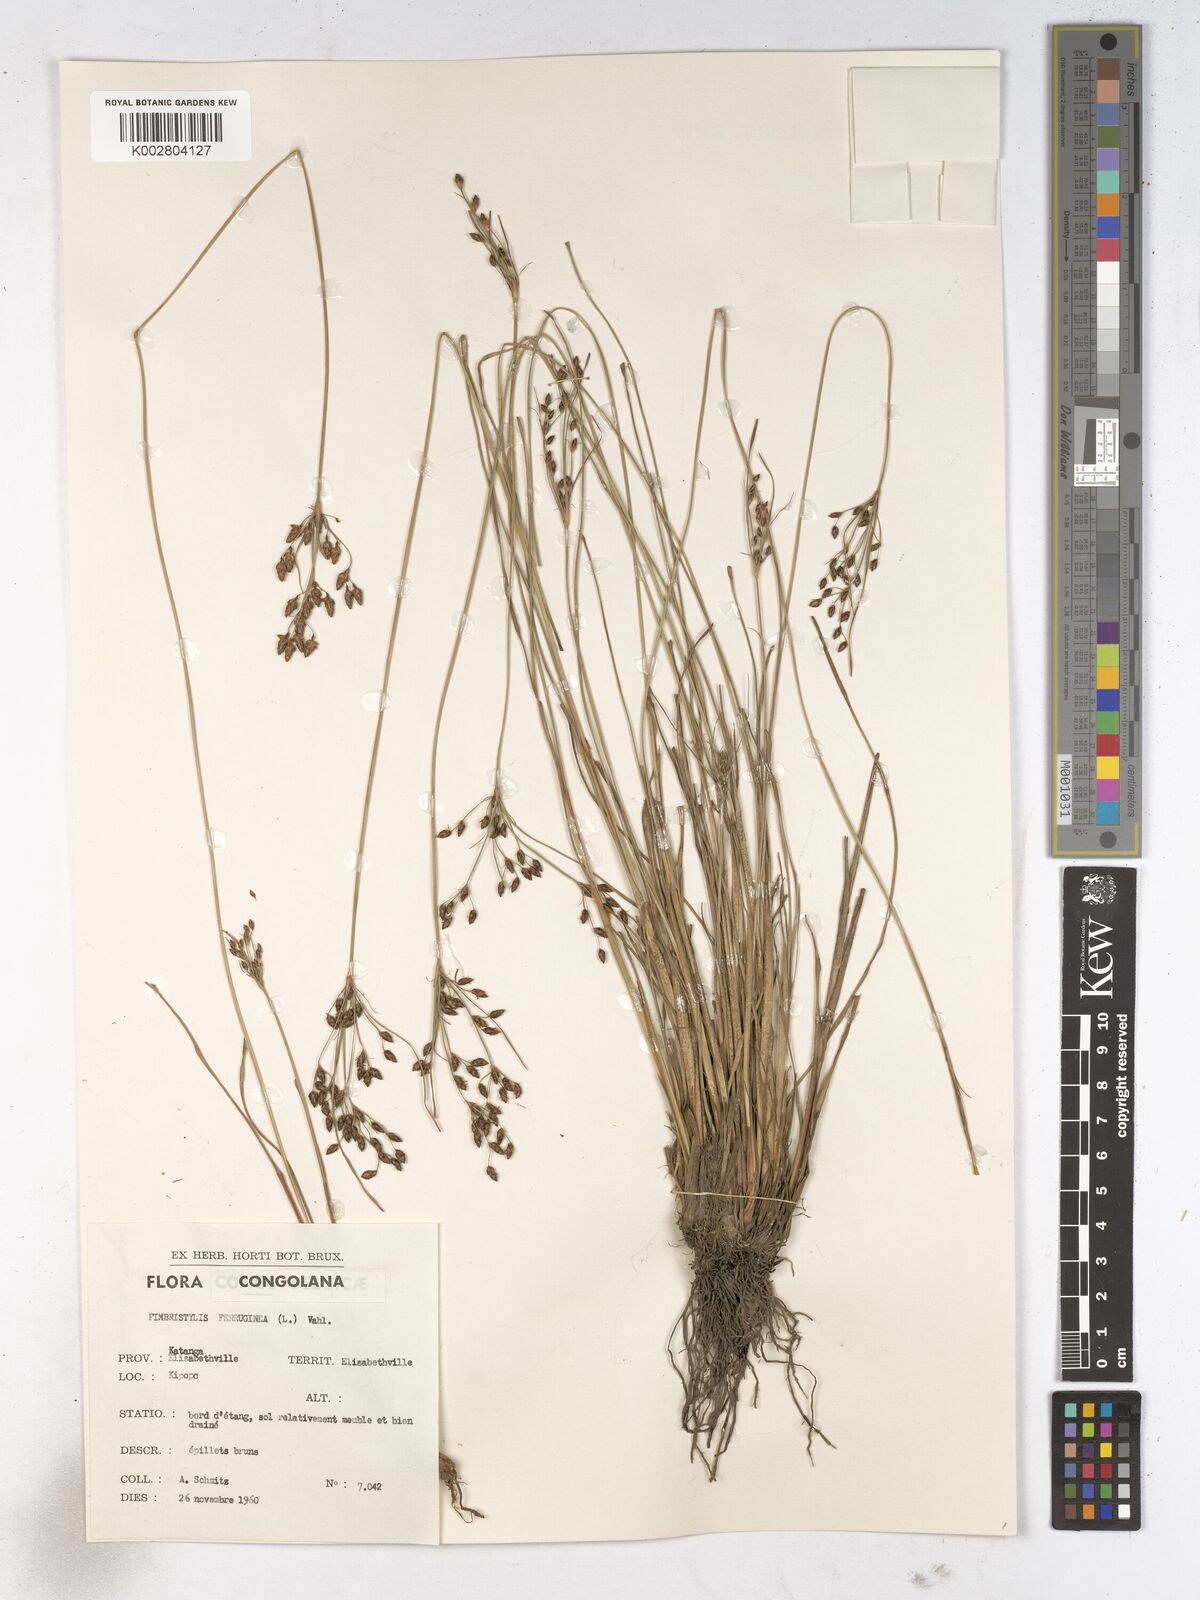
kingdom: Plantae
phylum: Tracheophyta
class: Liliopsida
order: Poales
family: Cyperaceae
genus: Fimbristylis
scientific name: Fimbristylis dichotoma
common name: Forked fimbry
